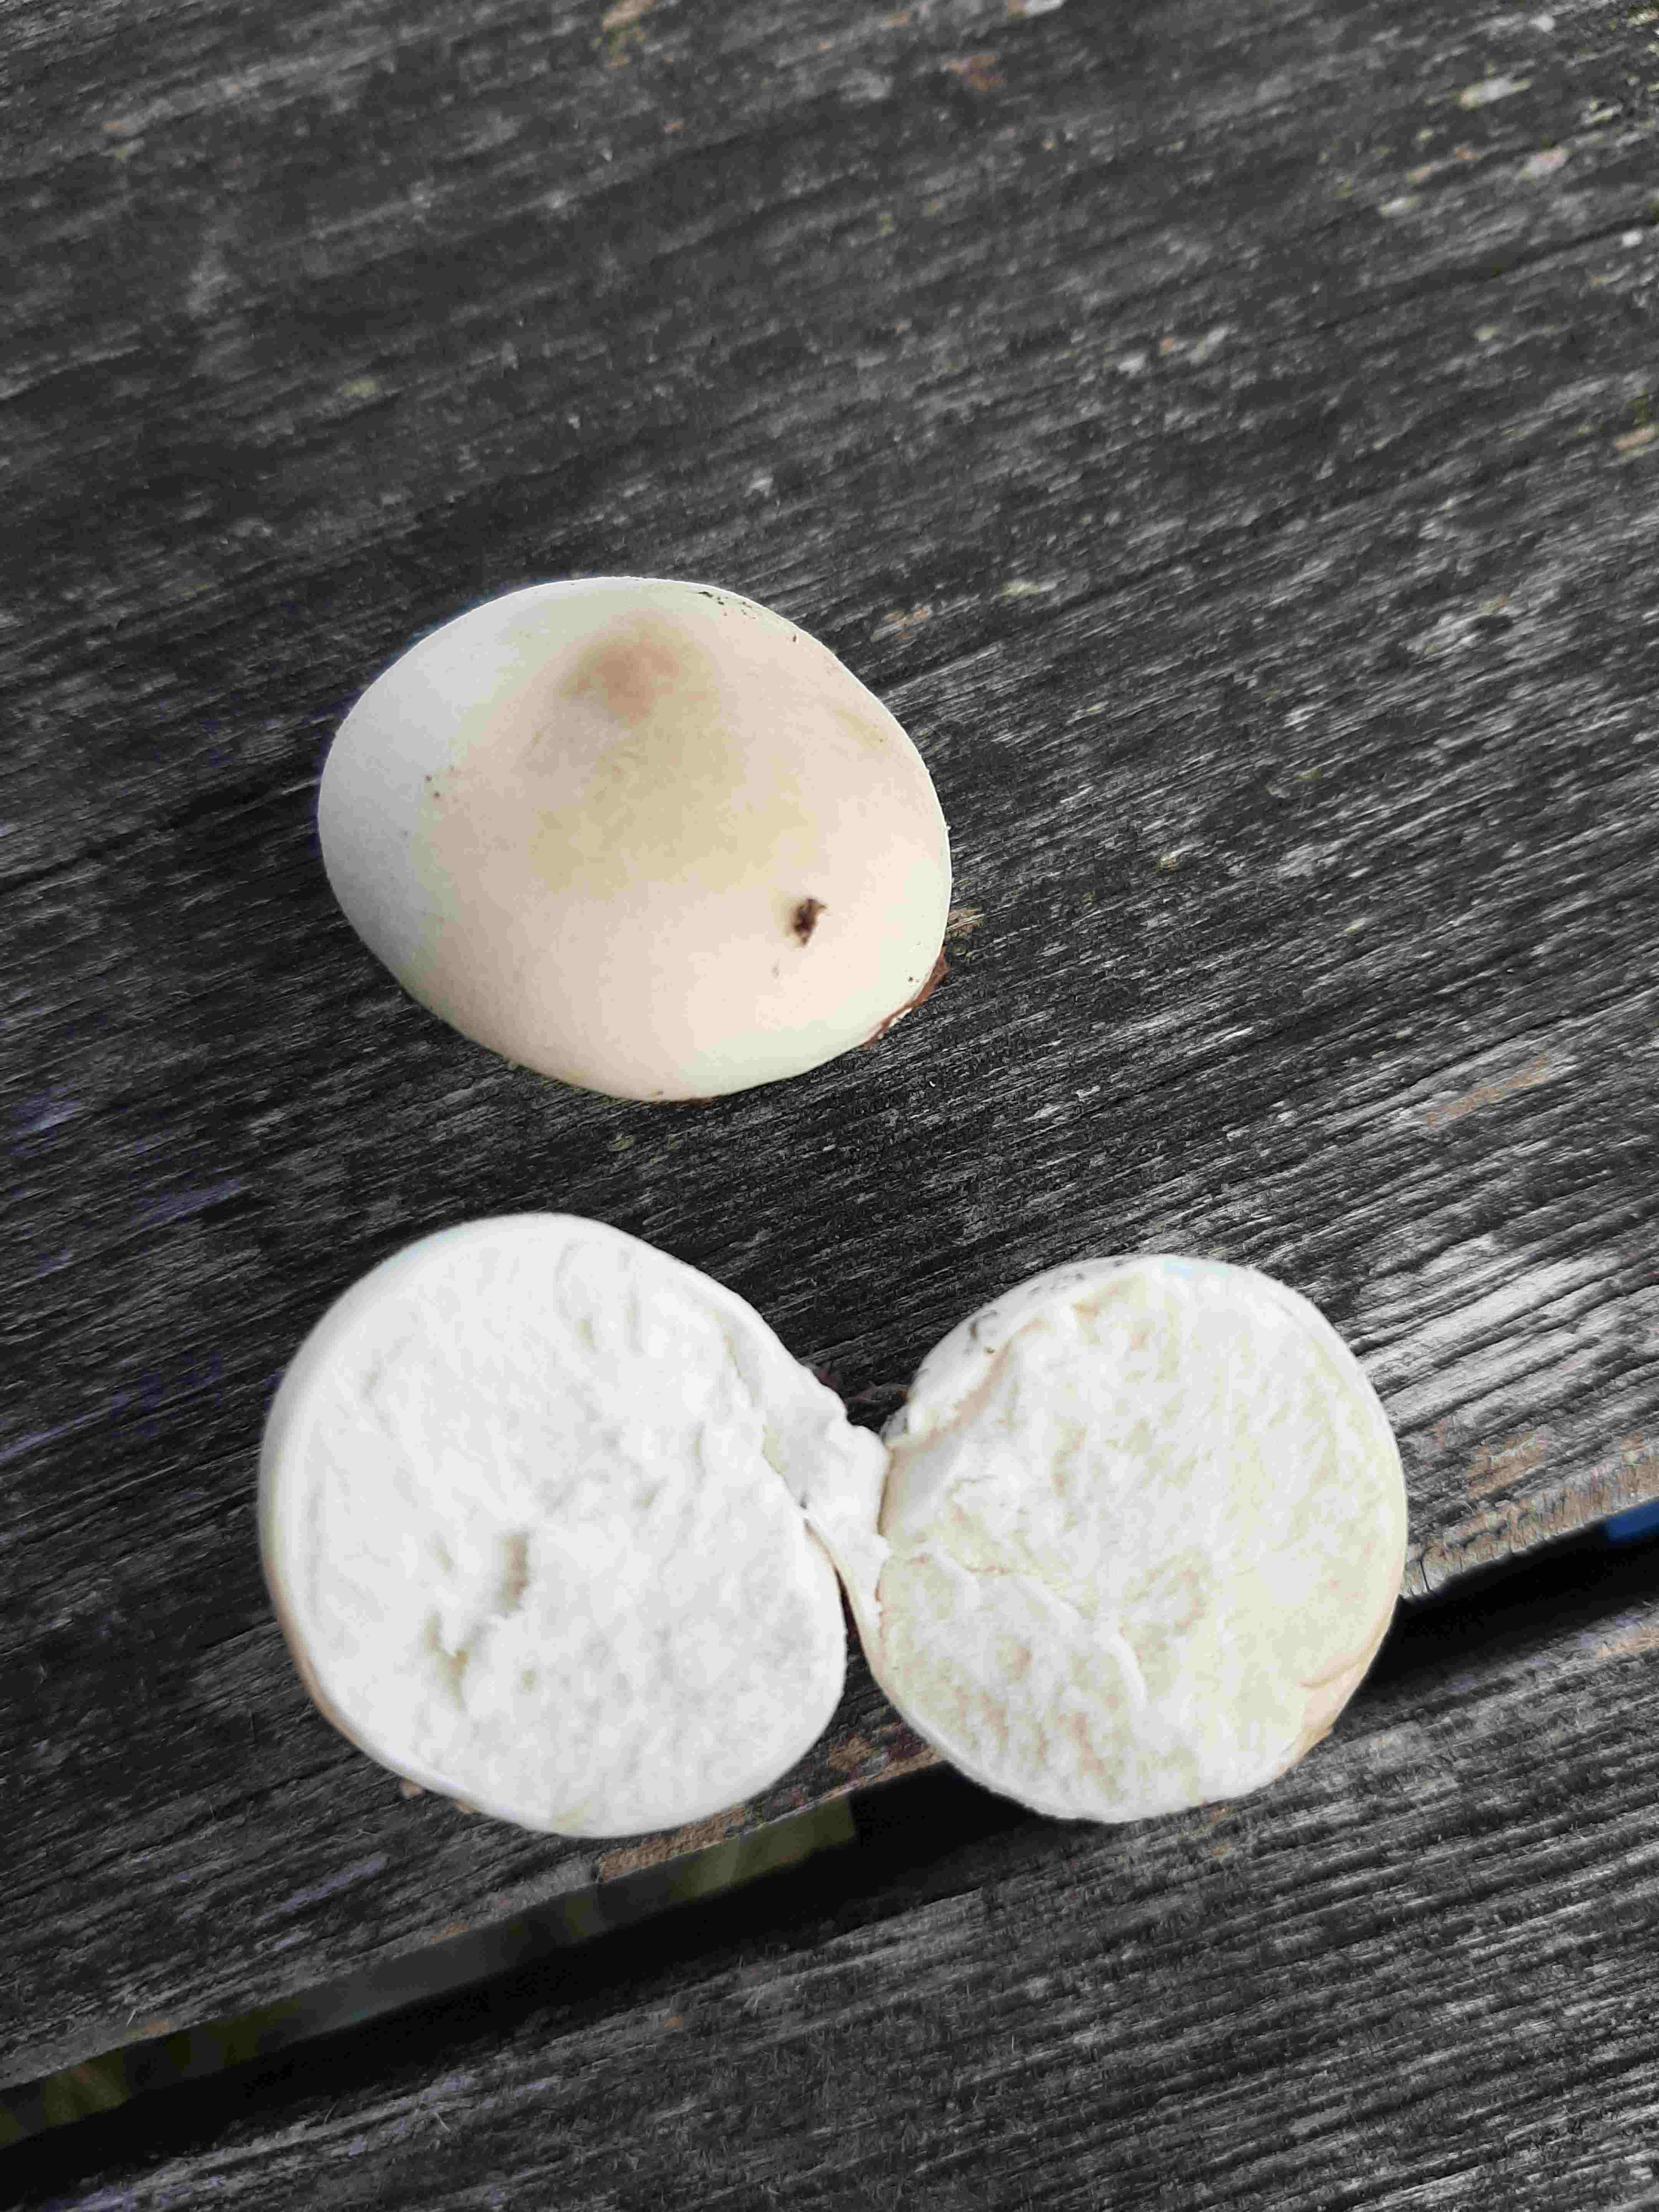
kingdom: Fungi
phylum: Basidiomycota
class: Agaricomycetes
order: Agaricales
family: Lycoperdaceae
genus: Bovista
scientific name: Bovista
